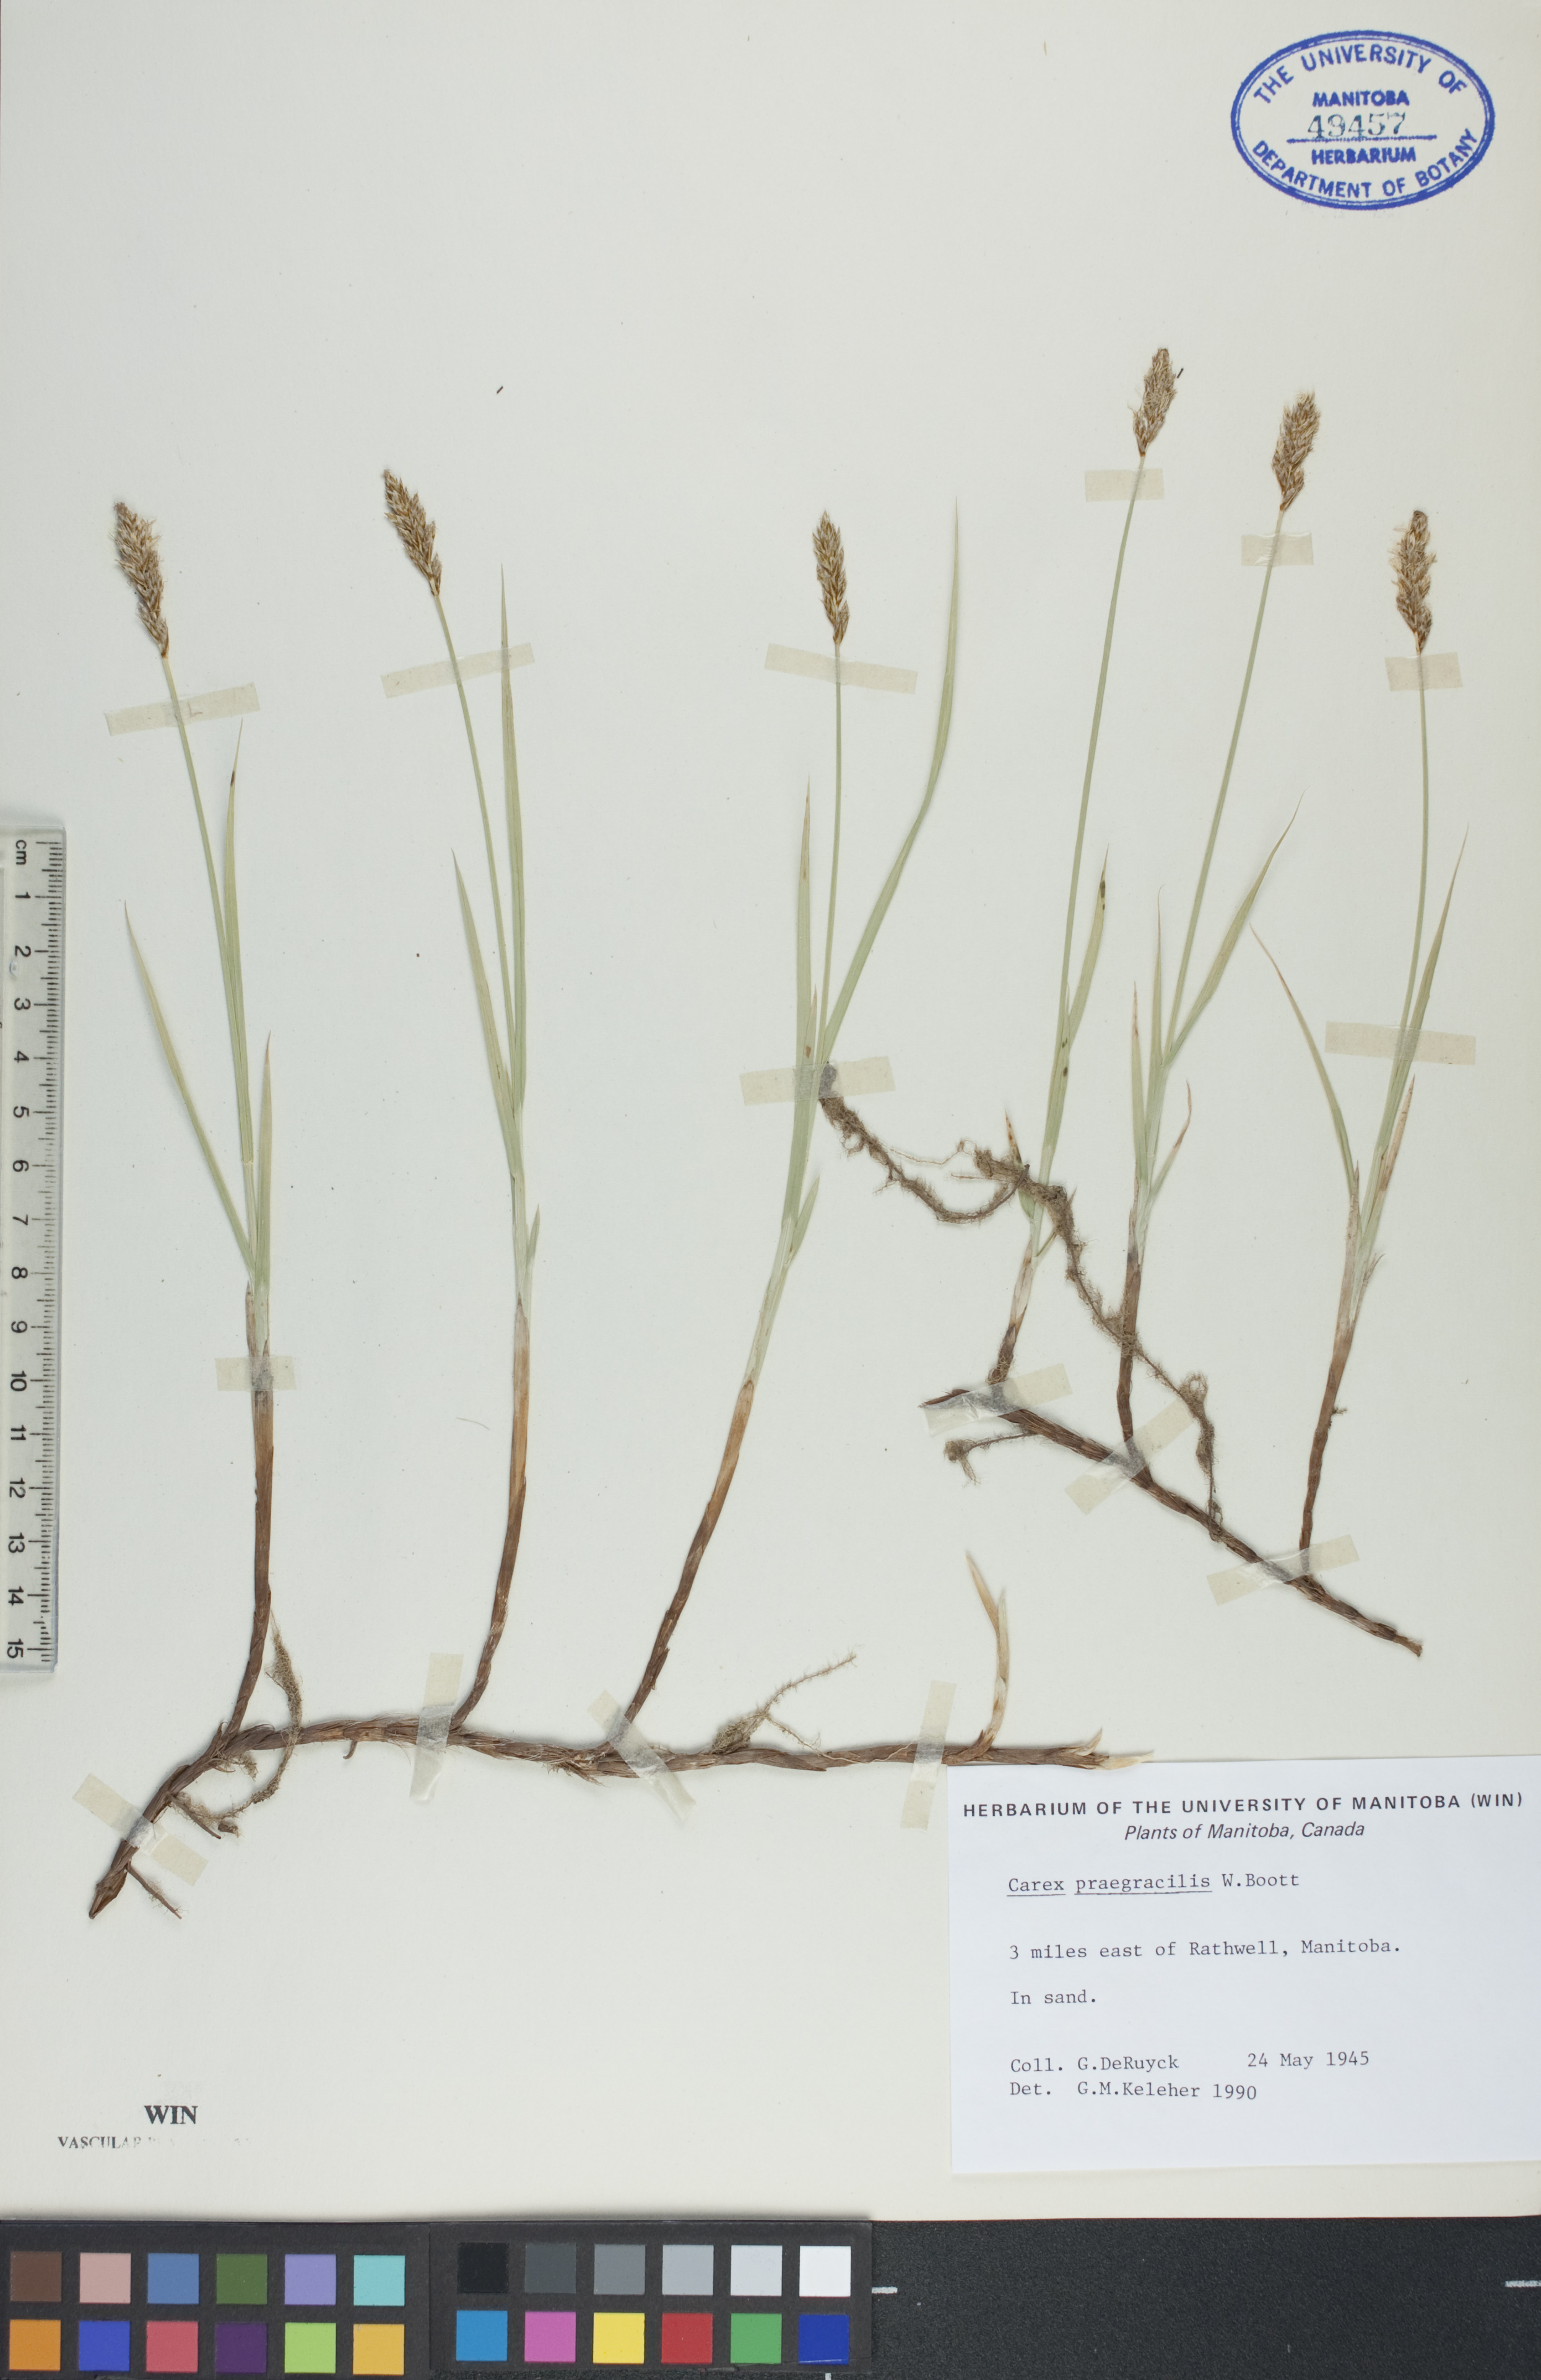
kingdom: Plantae
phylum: Tracheophyta
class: Liliopsida
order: Poales
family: Cyperaceae
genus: Carex
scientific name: Carex praegracilis
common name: Black creeper sedge
